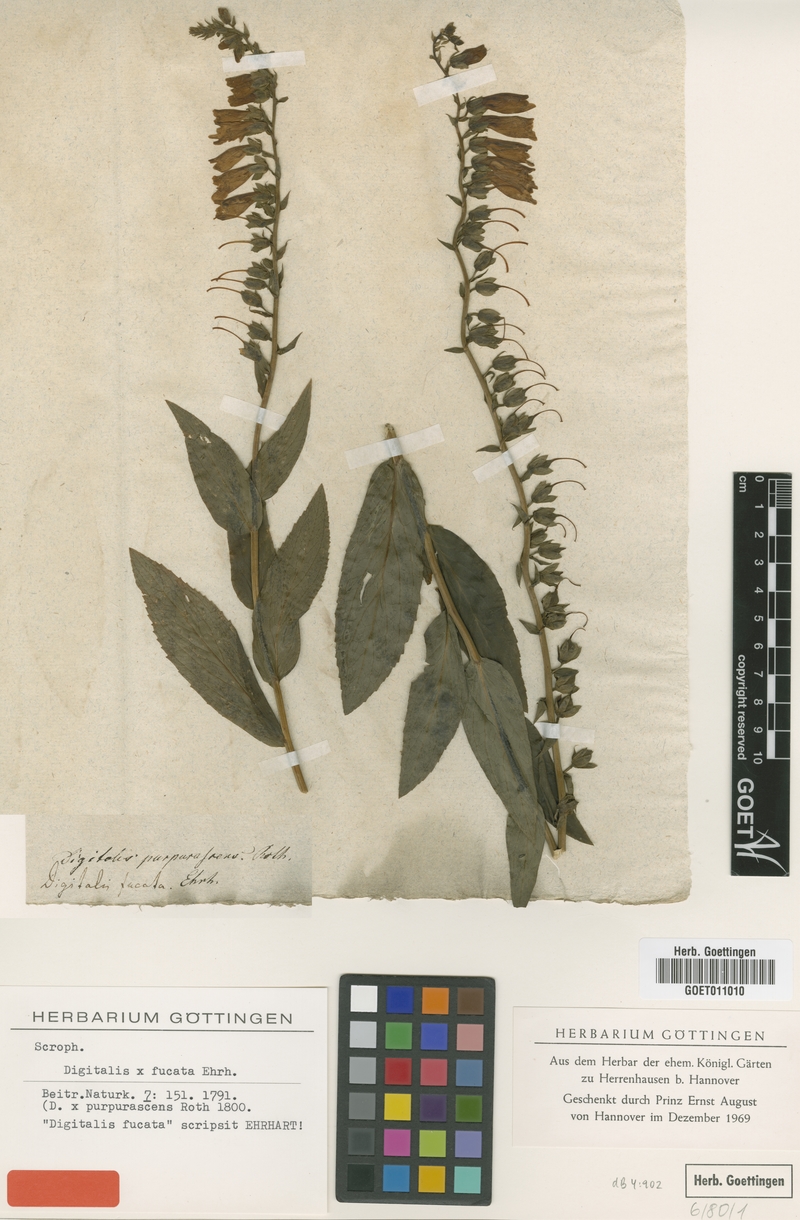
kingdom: Plantae
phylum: Tracheophyta
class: Magnoliopsida
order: Lamiales
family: Plantaginaceae
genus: Digitalis
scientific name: Digitalis fucata
